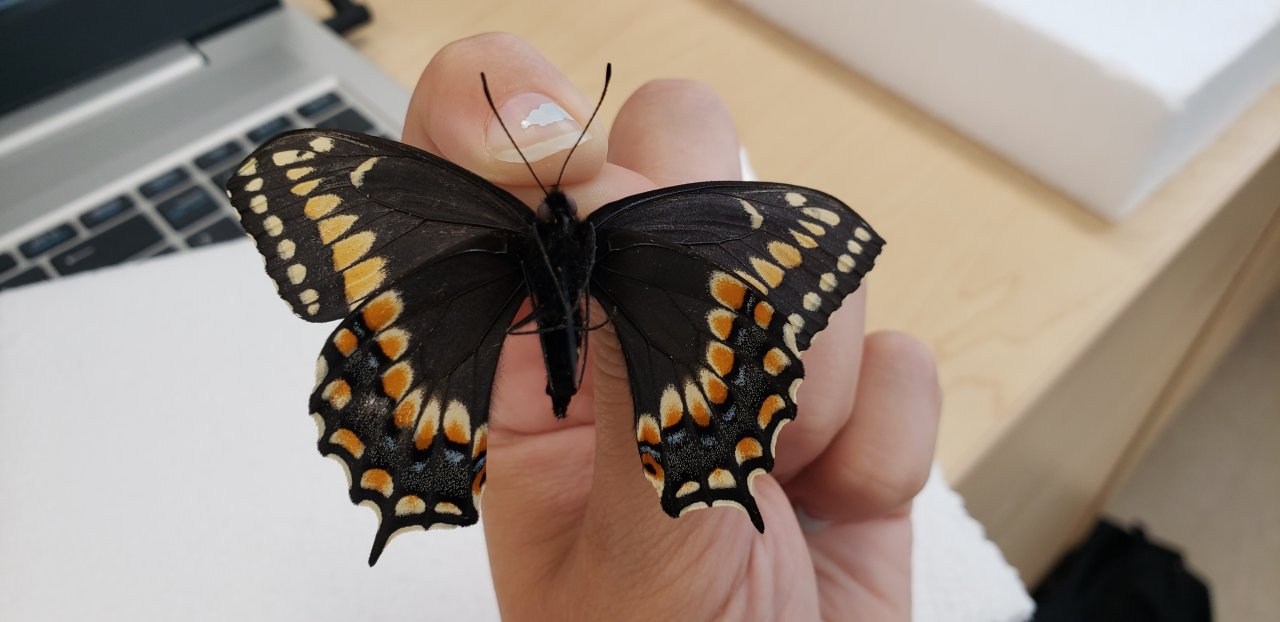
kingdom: Animalia
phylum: Arthropoda
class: Insecta
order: Lepidoptera
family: Papilionidae
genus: Papilio
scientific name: Papilio brevicauda
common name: Short-tailed Swallowtail
